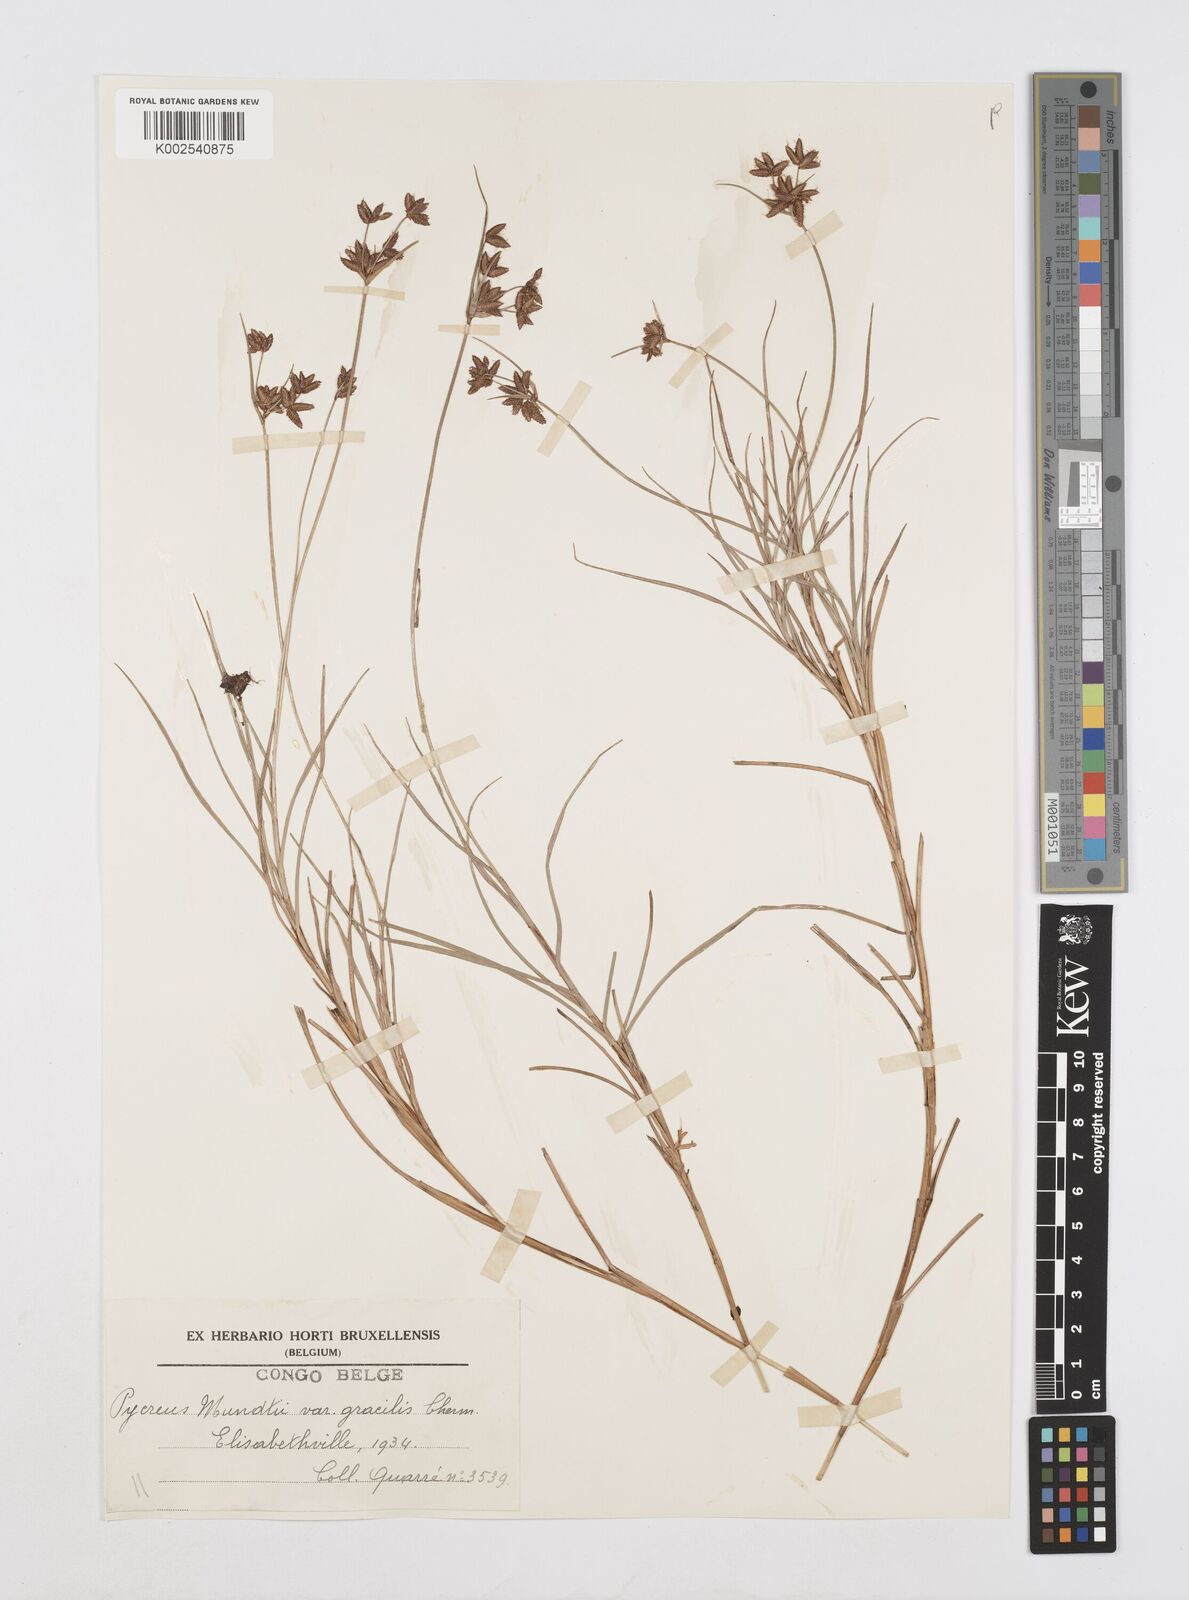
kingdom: Plantae
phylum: Tracheophyta
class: Liliopsida
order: Poales
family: Cyperaceae
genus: Cyperus
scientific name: Cyperus mundii
